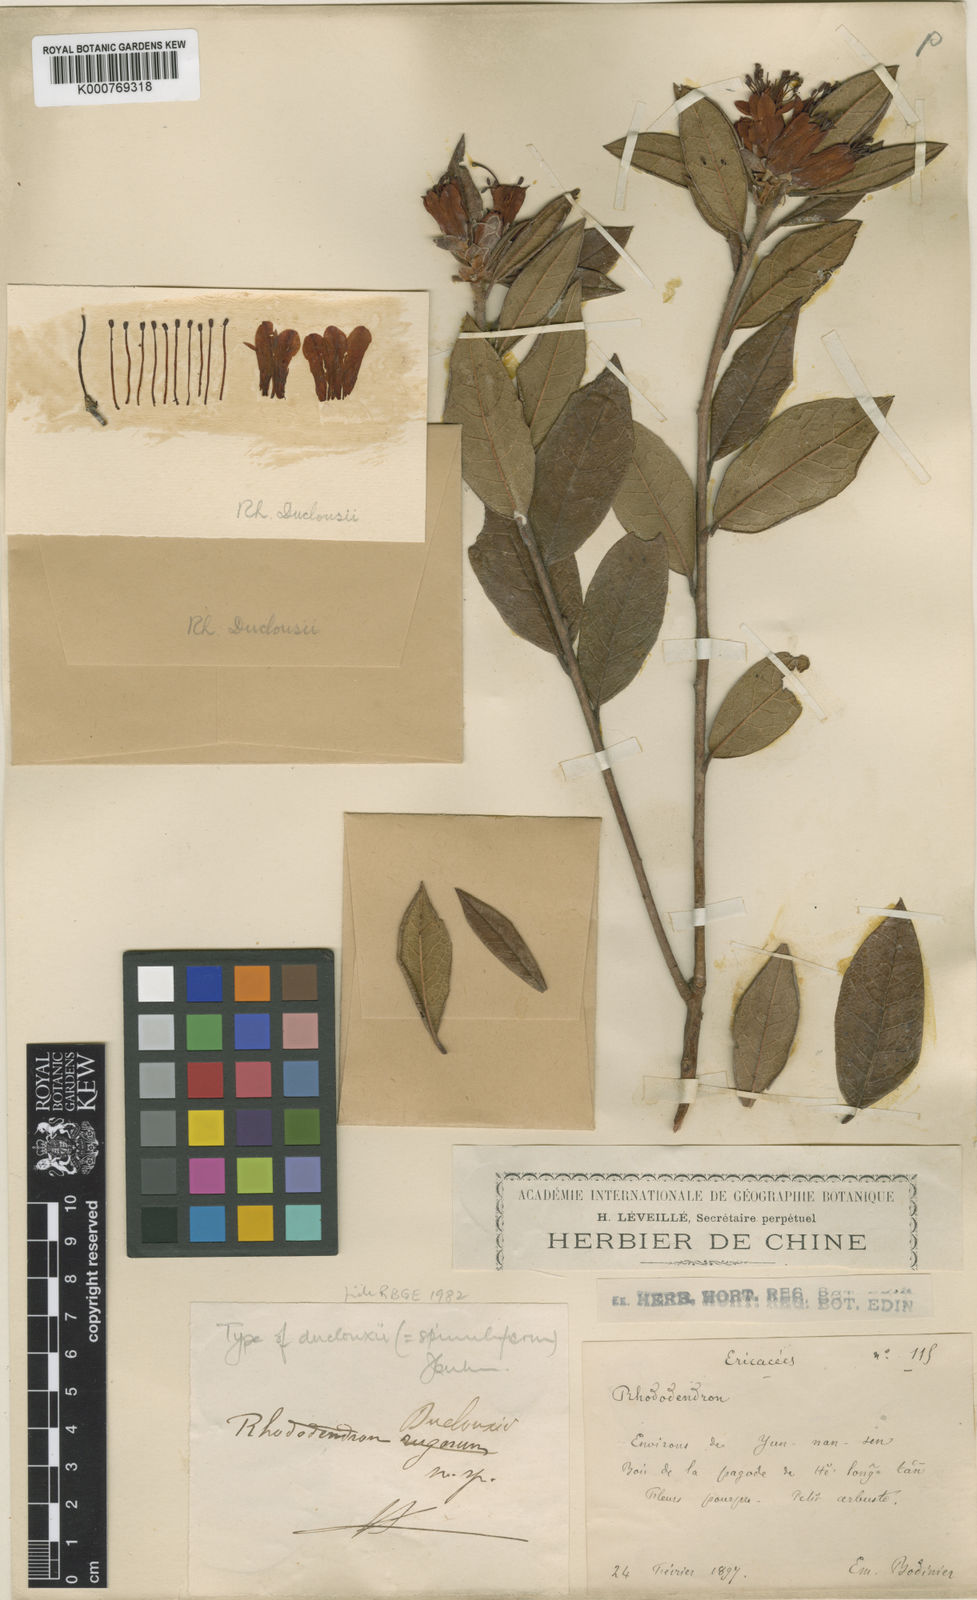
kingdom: Plantae
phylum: Tracheophyta
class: Magnoliopsida
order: Ericales
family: Ericaceae
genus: Rhododendron
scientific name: Rhododendron spinuliferum
